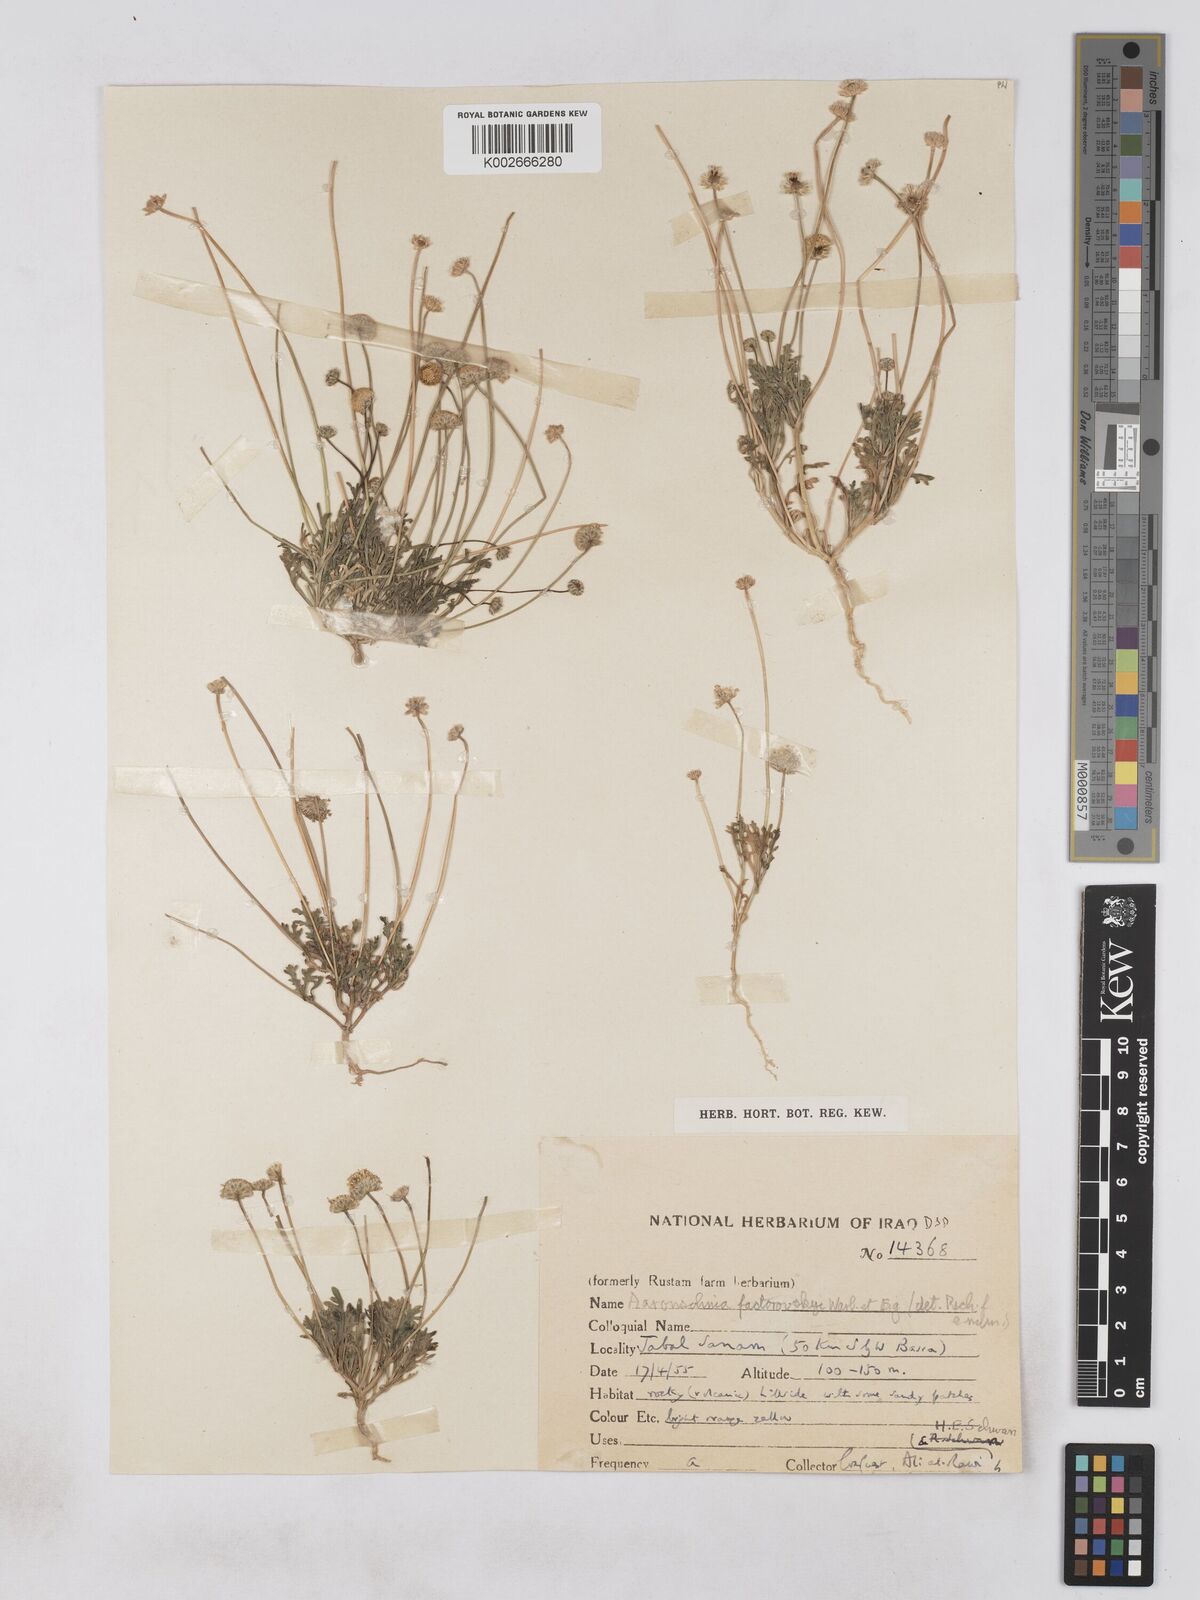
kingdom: Plantae
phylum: Tracheophyta
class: Magnoliopsida
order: Asterales
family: Asteraceae
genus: Otoglyphis
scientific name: Otoglyphis factorovskyi
